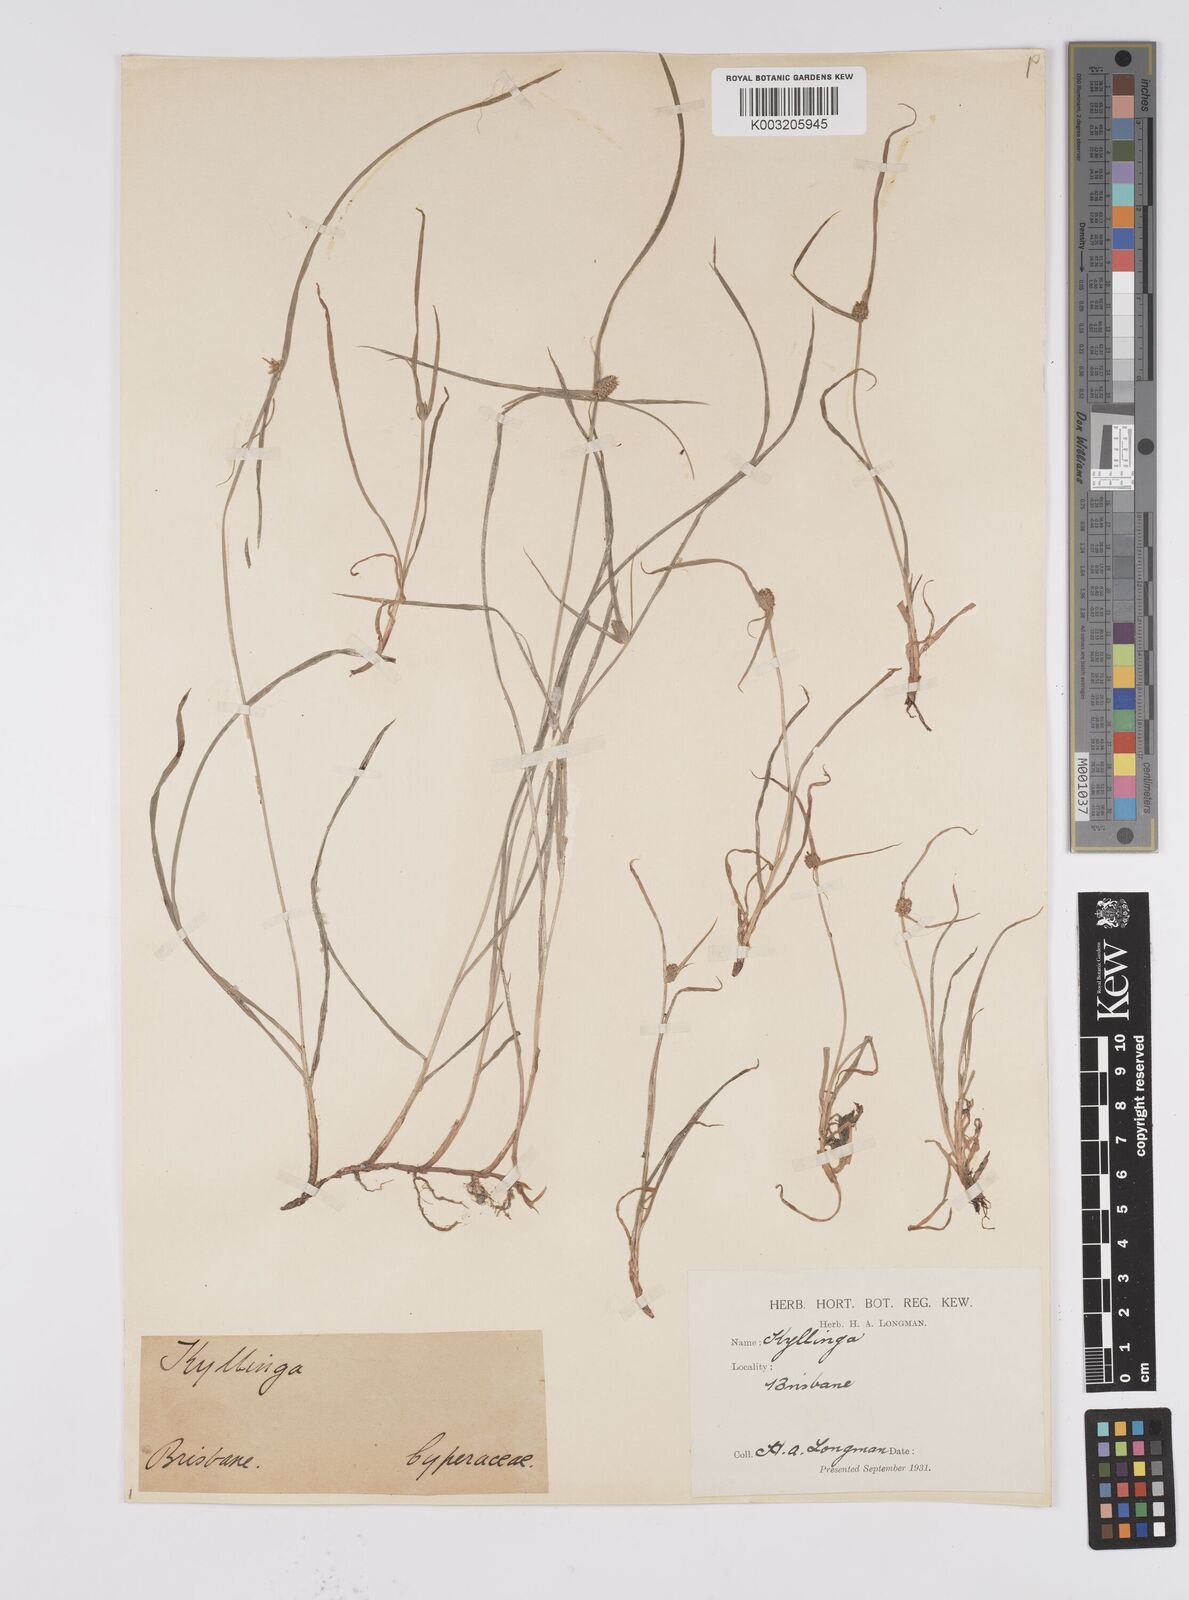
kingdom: Plantae
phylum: Tracheophyta
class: Liliopsida
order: Poales
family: Cyperaceae
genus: Cyperus
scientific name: Cyperus brevifolius
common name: Globe kyllinga
